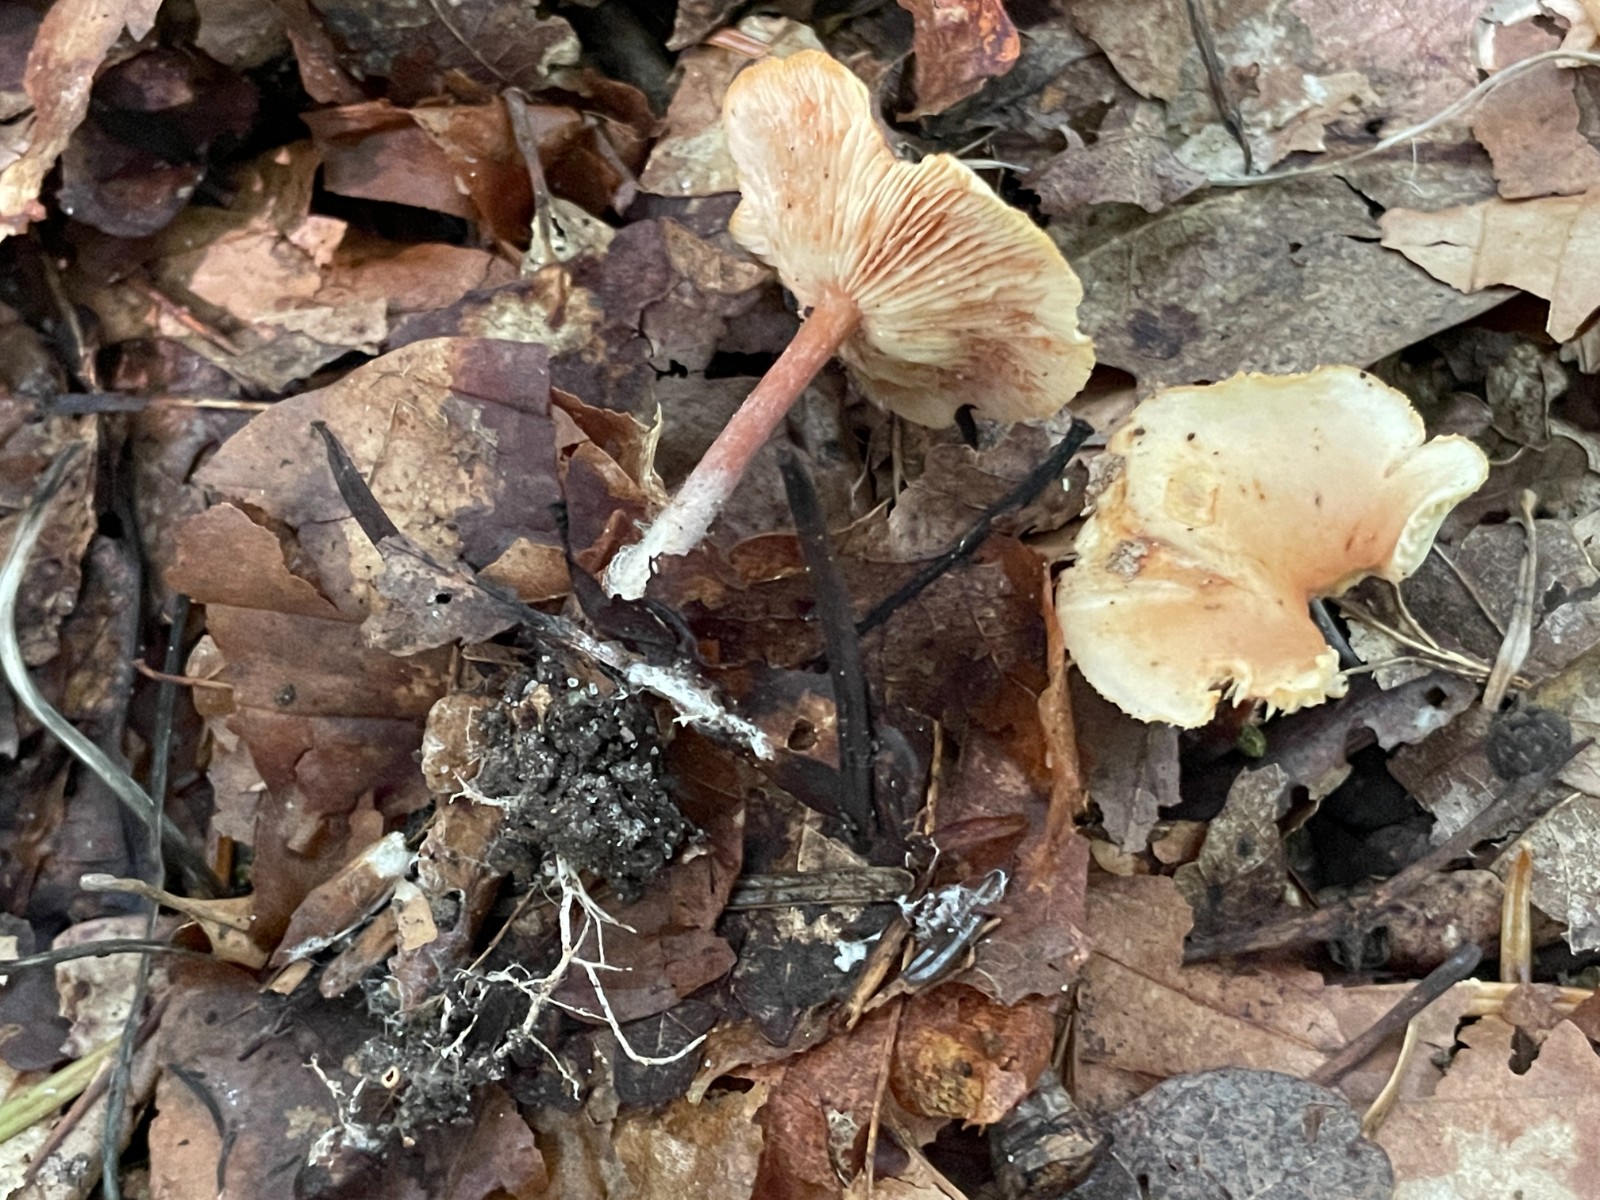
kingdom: Fungi
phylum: Basidiomycota
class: Agaricomycetes
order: Agaricales
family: Omphalotaceae
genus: Gymnopus
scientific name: Gymnopus dryophilus
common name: løv-fladhat
